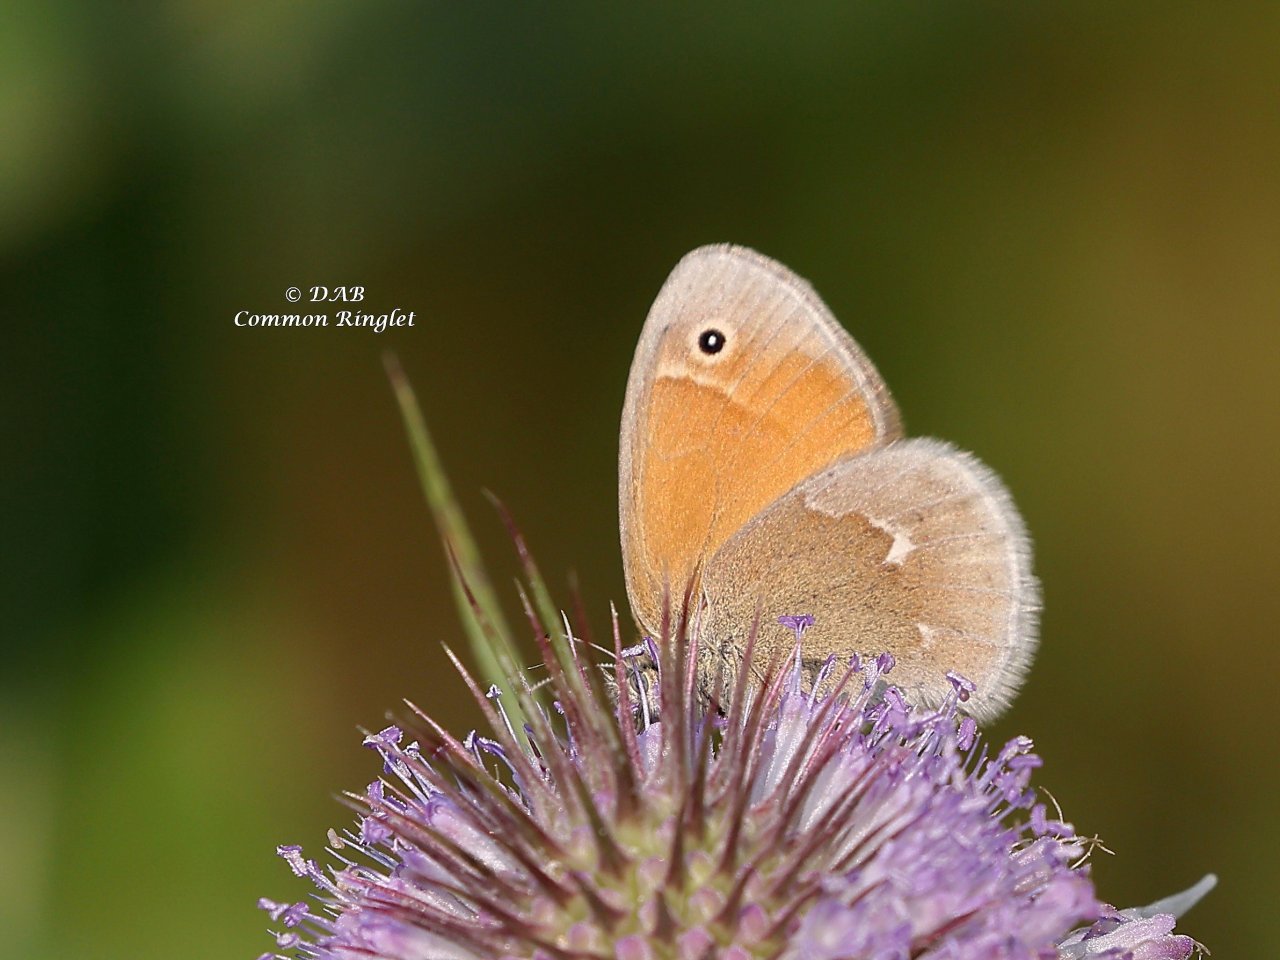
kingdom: Animalia
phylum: Arthropoda
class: Insecta
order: Lepidoptera
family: Nymphalidae
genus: Coenonympha
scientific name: Coenonympha tullia
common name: Large Heath
